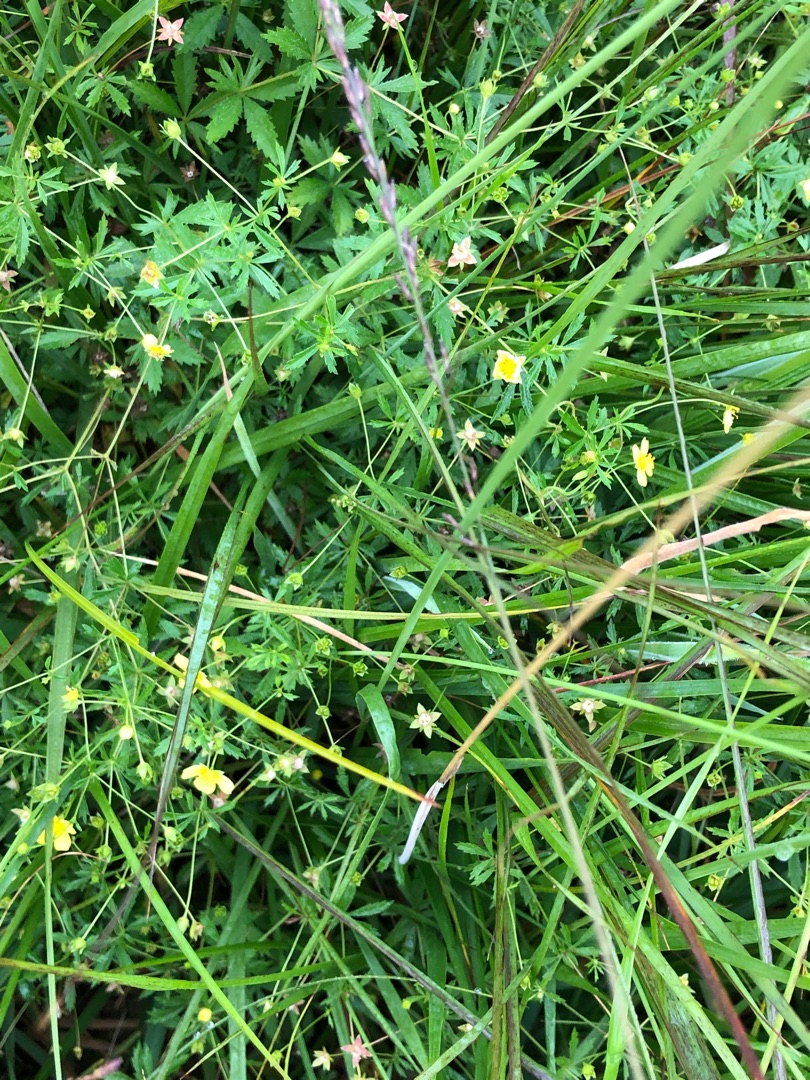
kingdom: Plantae
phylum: Tracheophyta
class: Magnoliopsida
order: Rosales
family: Rosaceae
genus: Potentilla
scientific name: Potentilla erecta
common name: Tormentil
